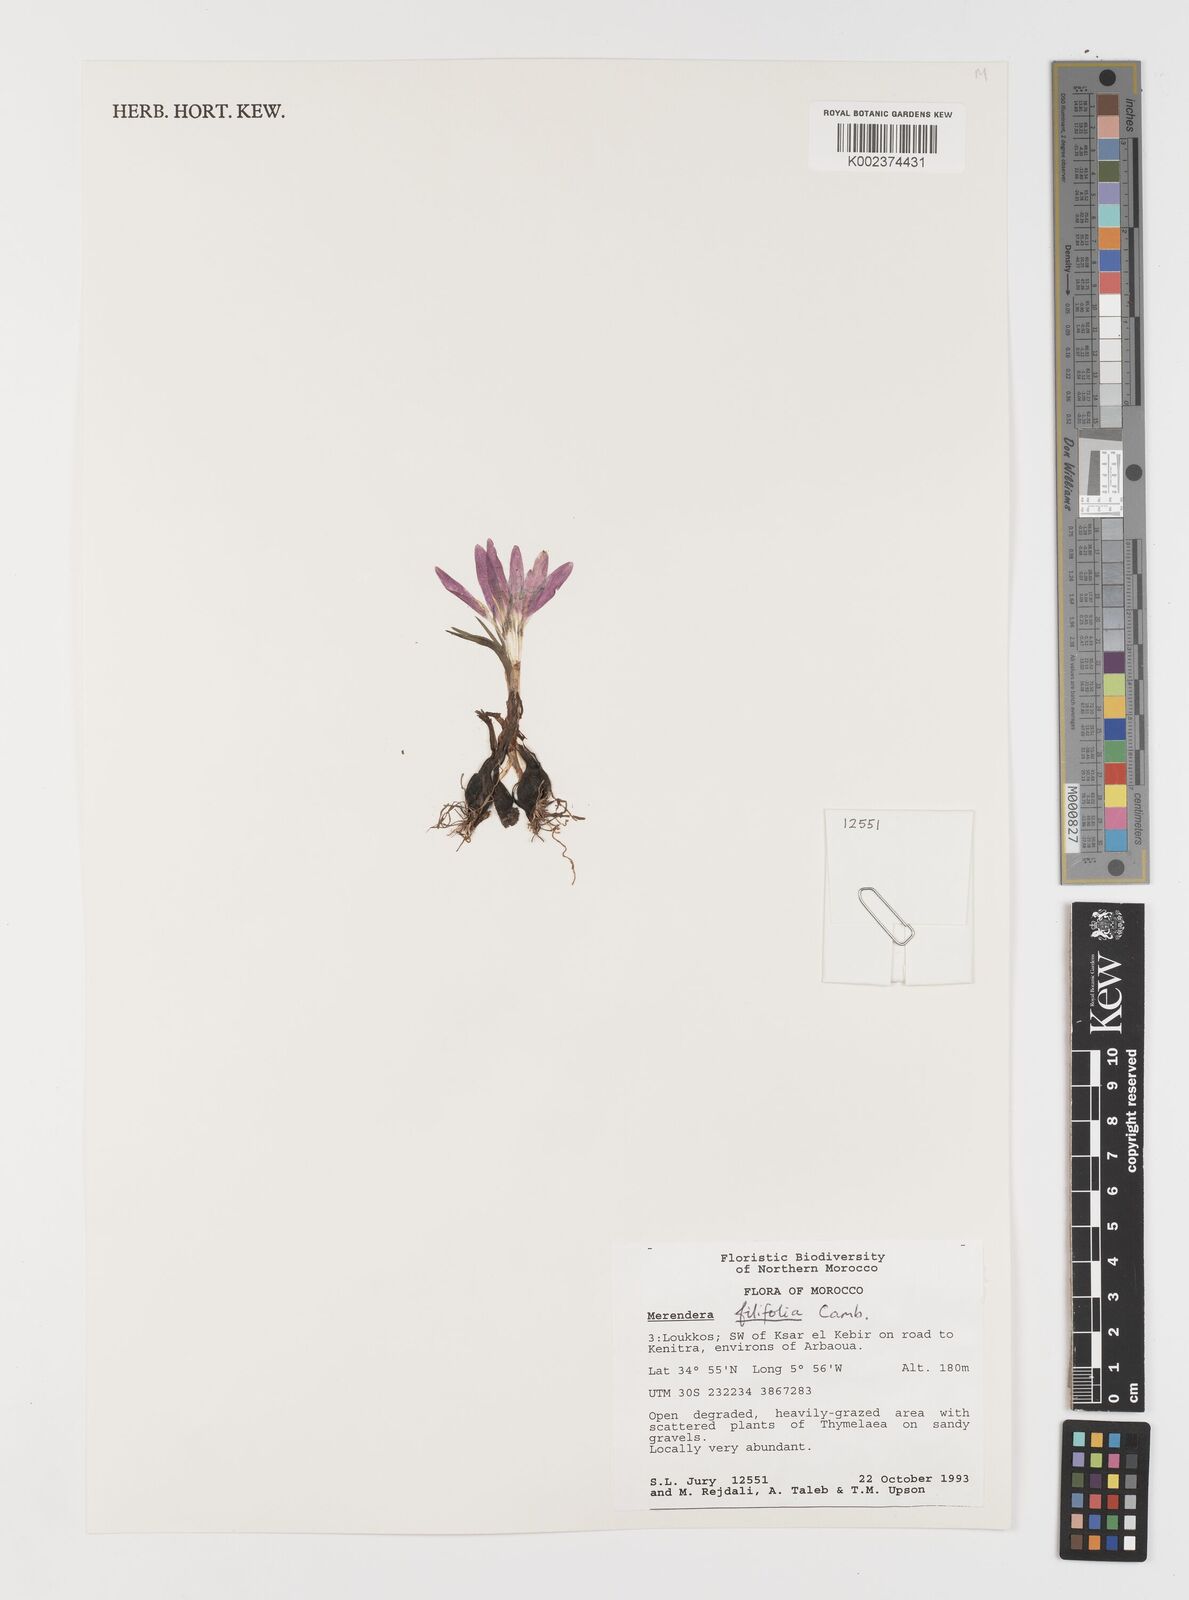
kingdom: Plantae
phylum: Tracheophyta
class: Liliopsida
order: Liliales
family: Colchicaceae
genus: Colchicum
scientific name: Colchicum filifolium
